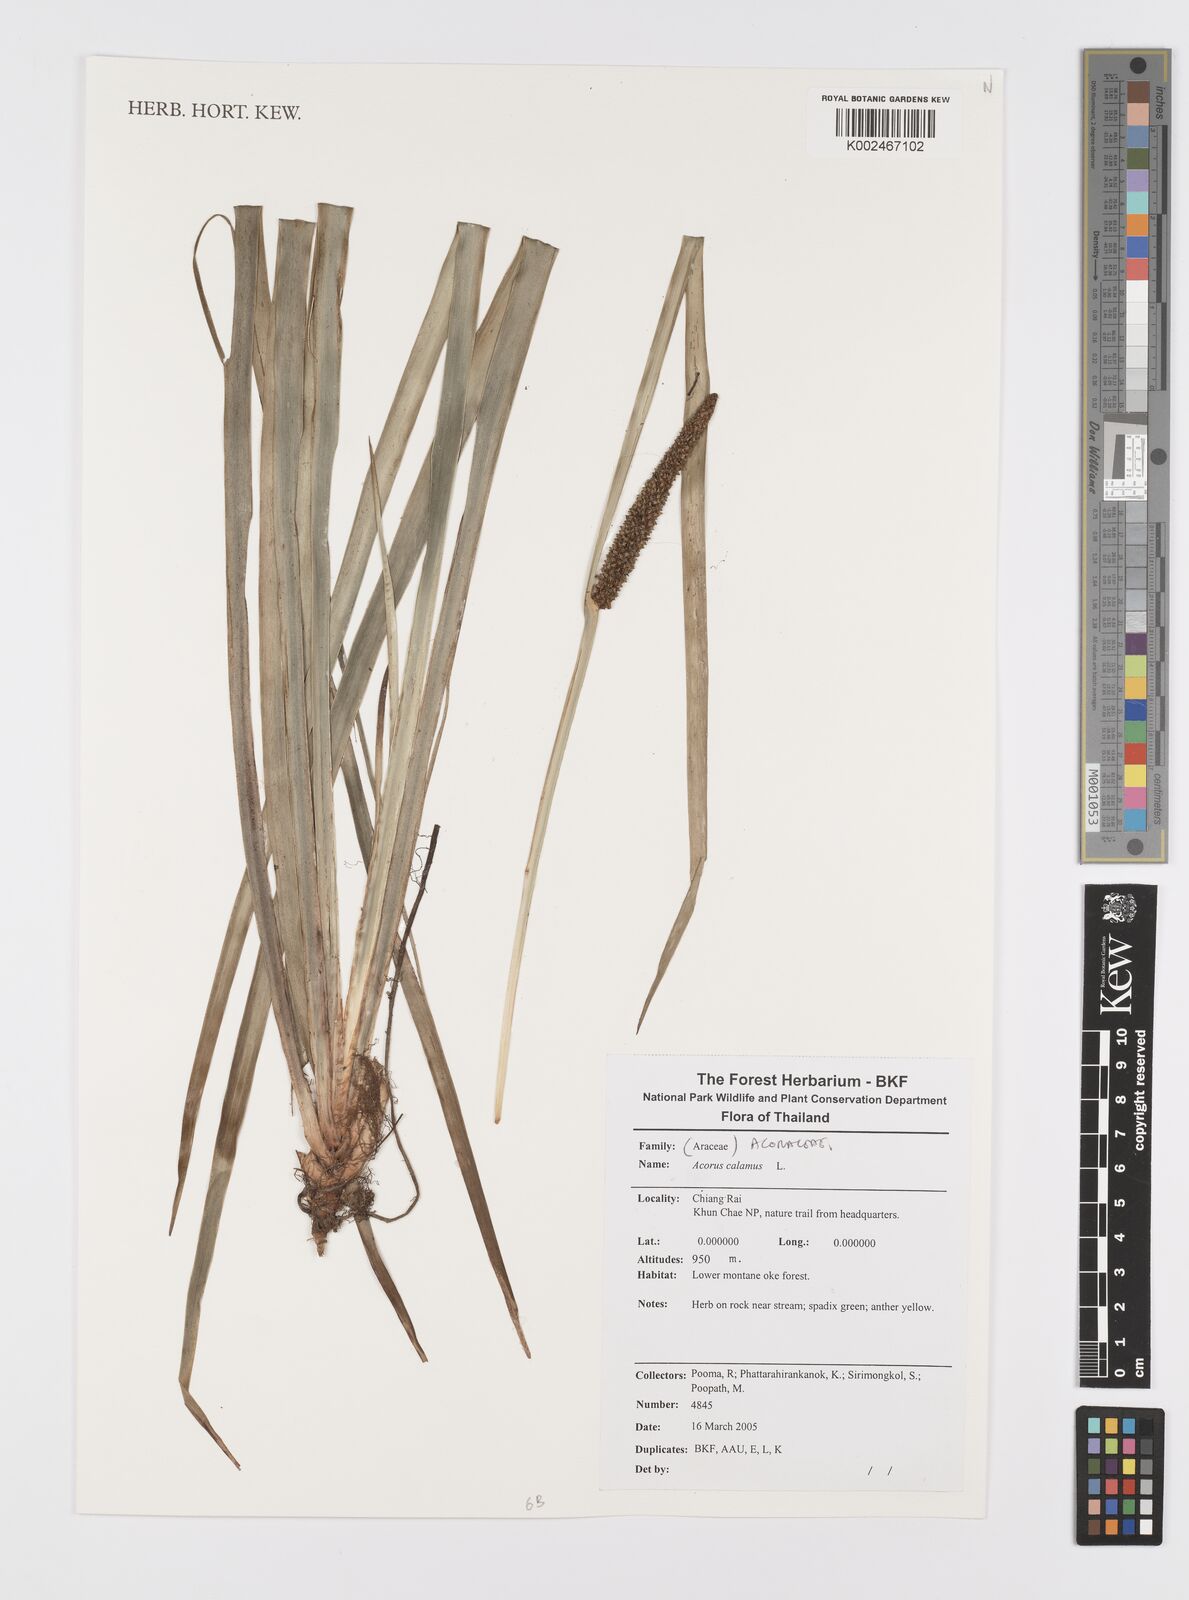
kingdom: Plantae
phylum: Tracheophyta
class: Liliopsida
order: Acorales
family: Acoraceae
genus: Acorus
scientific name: Acorus calamus
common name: Sweet-flag
